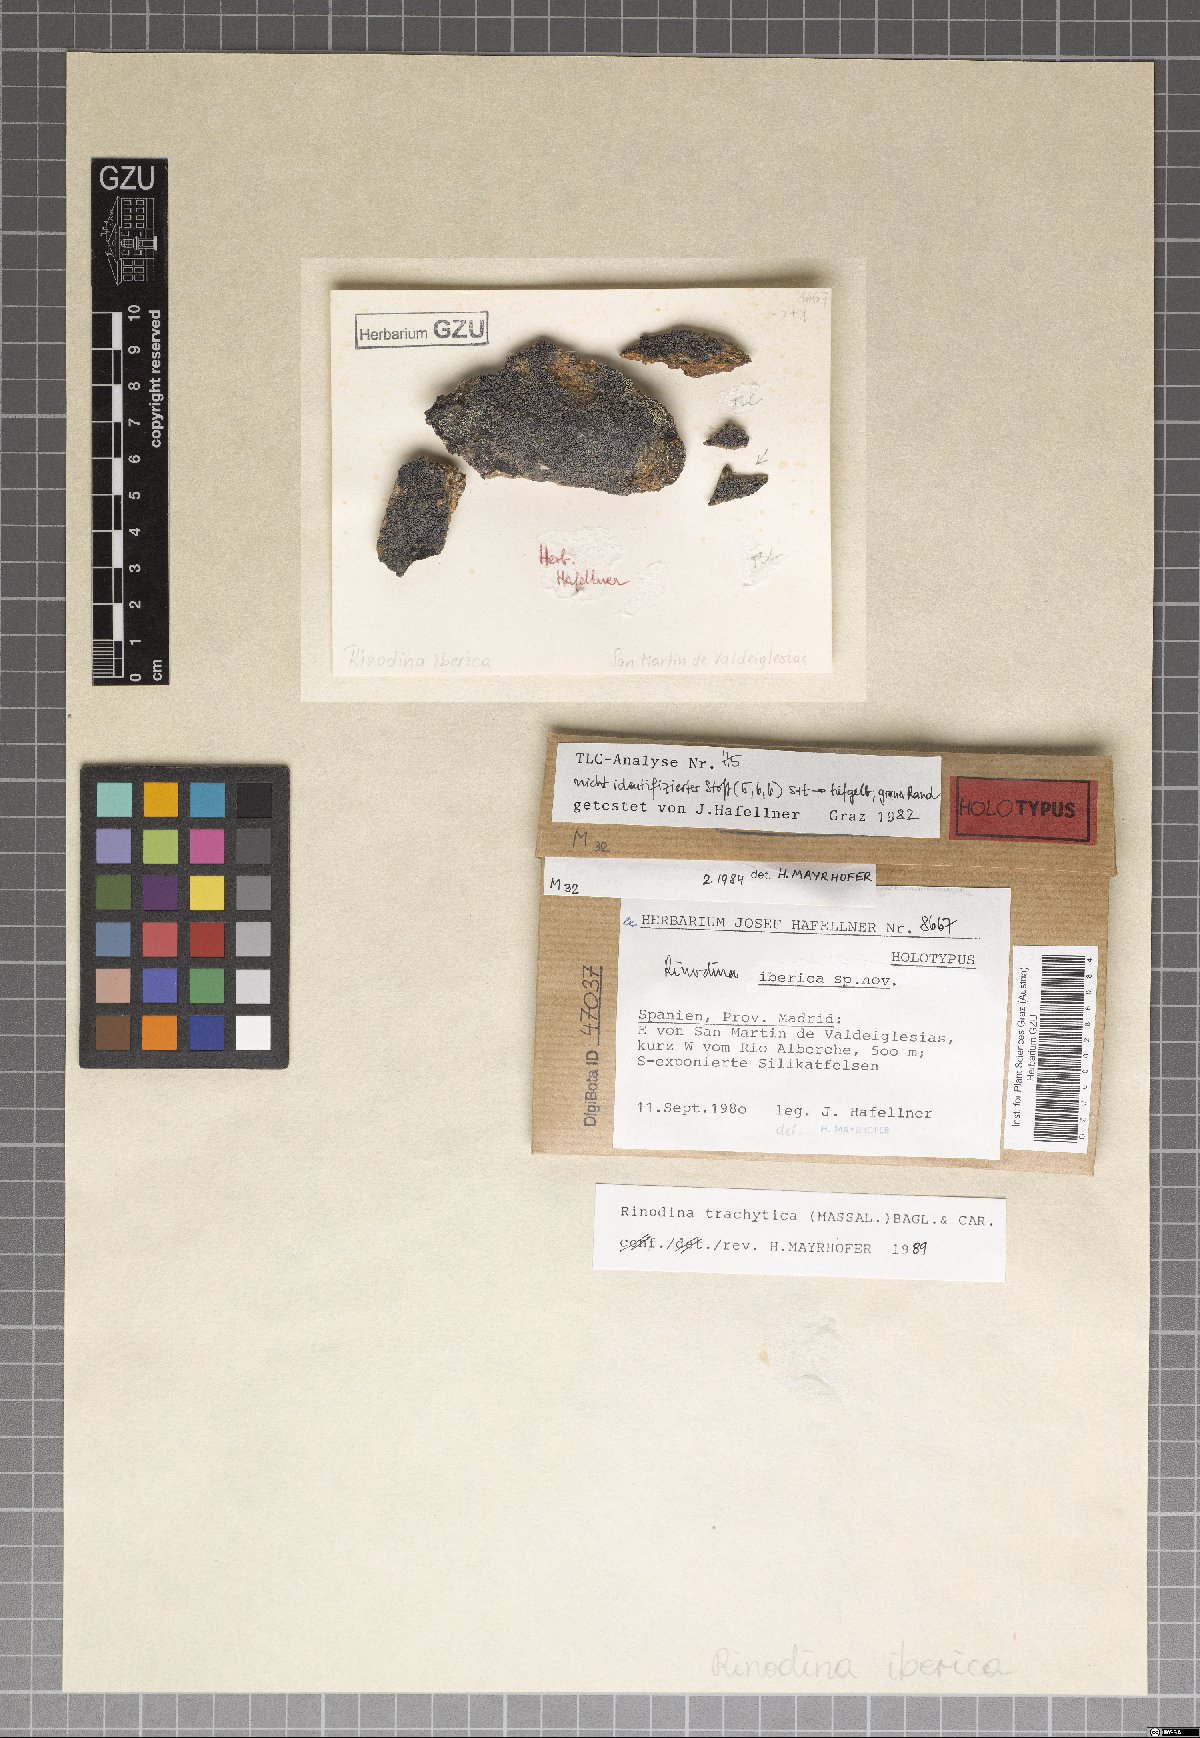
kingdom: Fungi
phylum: Ascomycota
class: Lecanoromycetes
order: Caliciales
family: Physciaceae
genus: Rinodina
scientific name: Rinodina lecanorina
